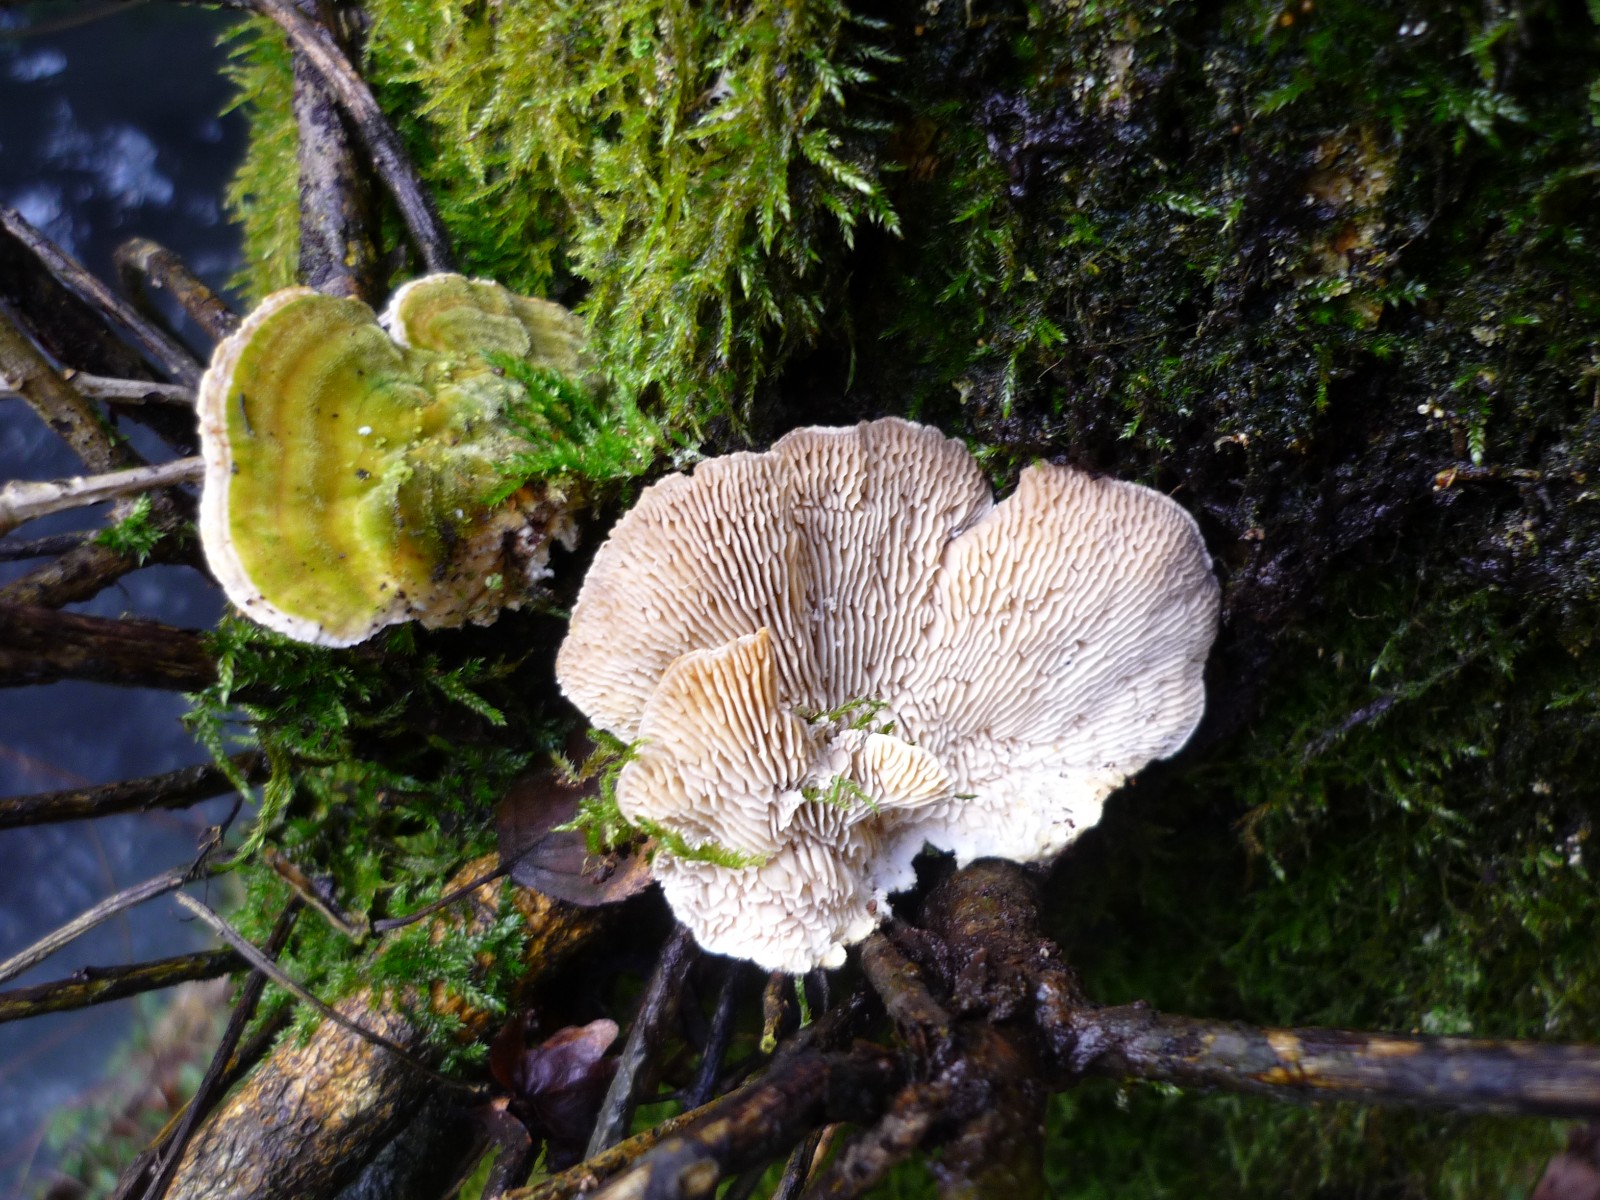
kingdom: Fungi
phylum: Basidiomycota
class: Agaricomycetes
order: Polyporales
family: Polyporaceae
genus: Lenzites
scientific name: Lenzites betulinus
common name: birke-læderporesvamp
